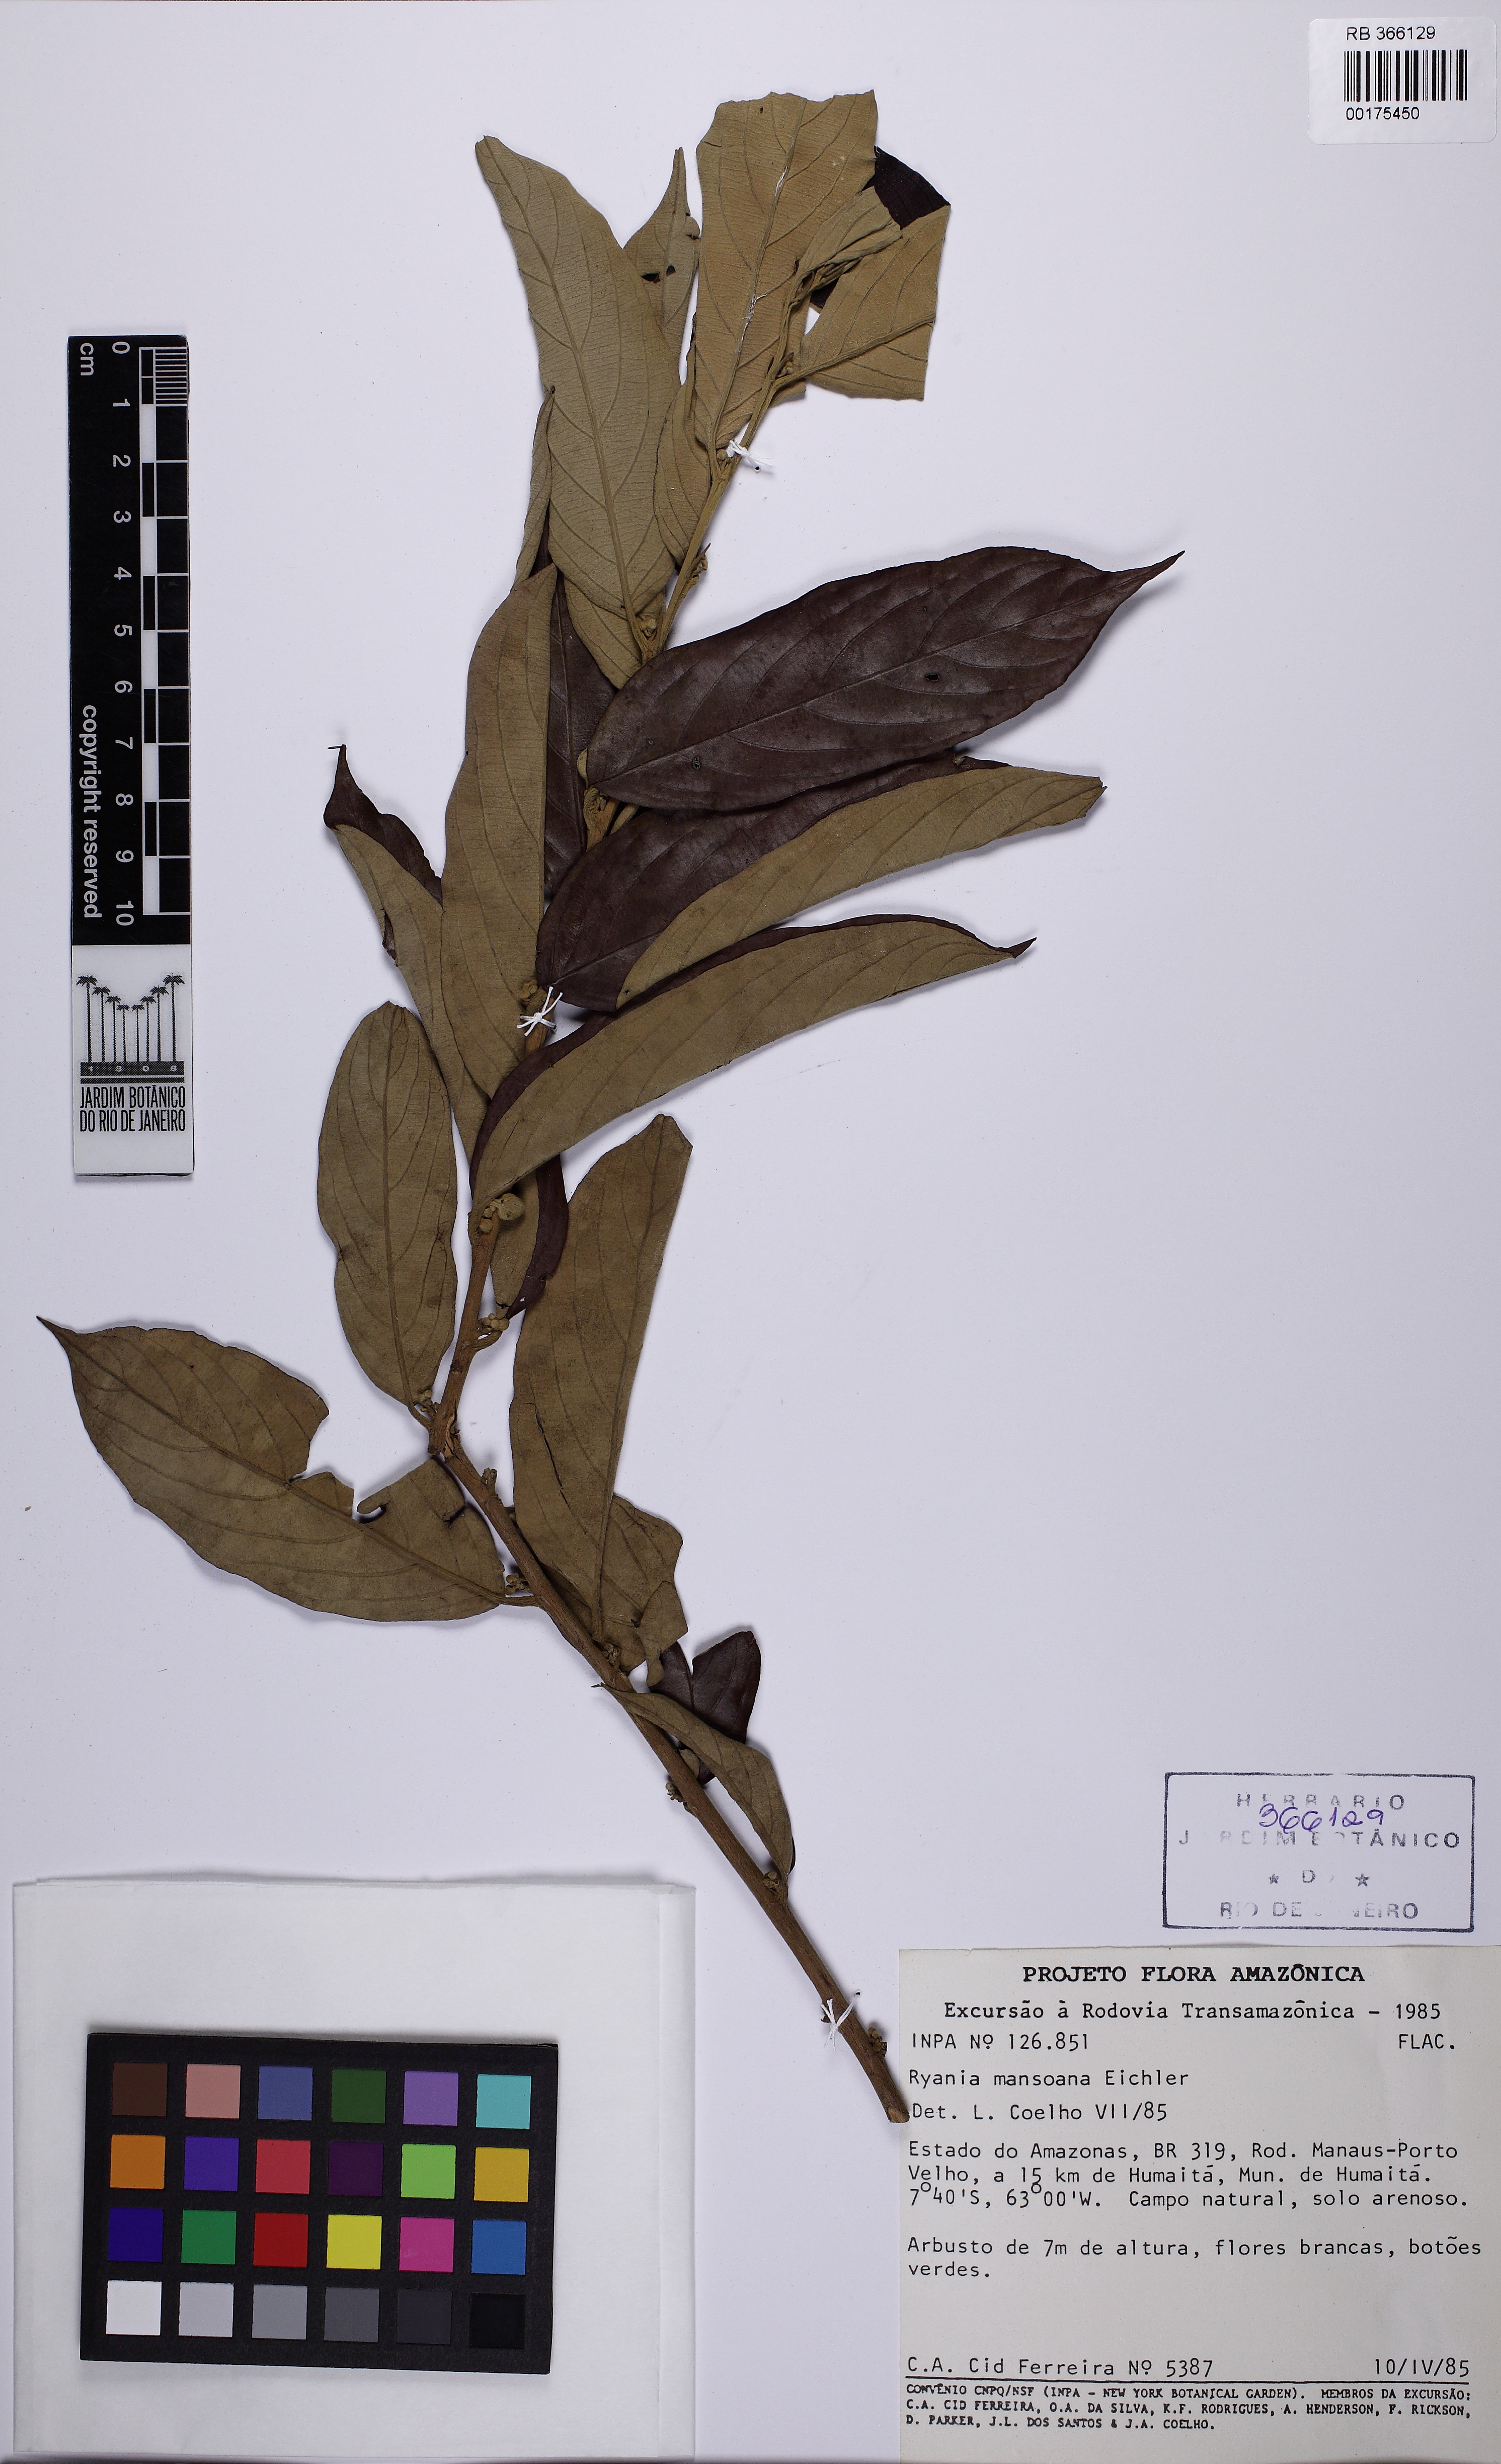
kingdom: Plantae
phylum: Tracheophyta
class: Magnoliopsida
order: Malpighiales
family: Salicaceae
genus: Ryania
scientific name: Ryania mansoana
